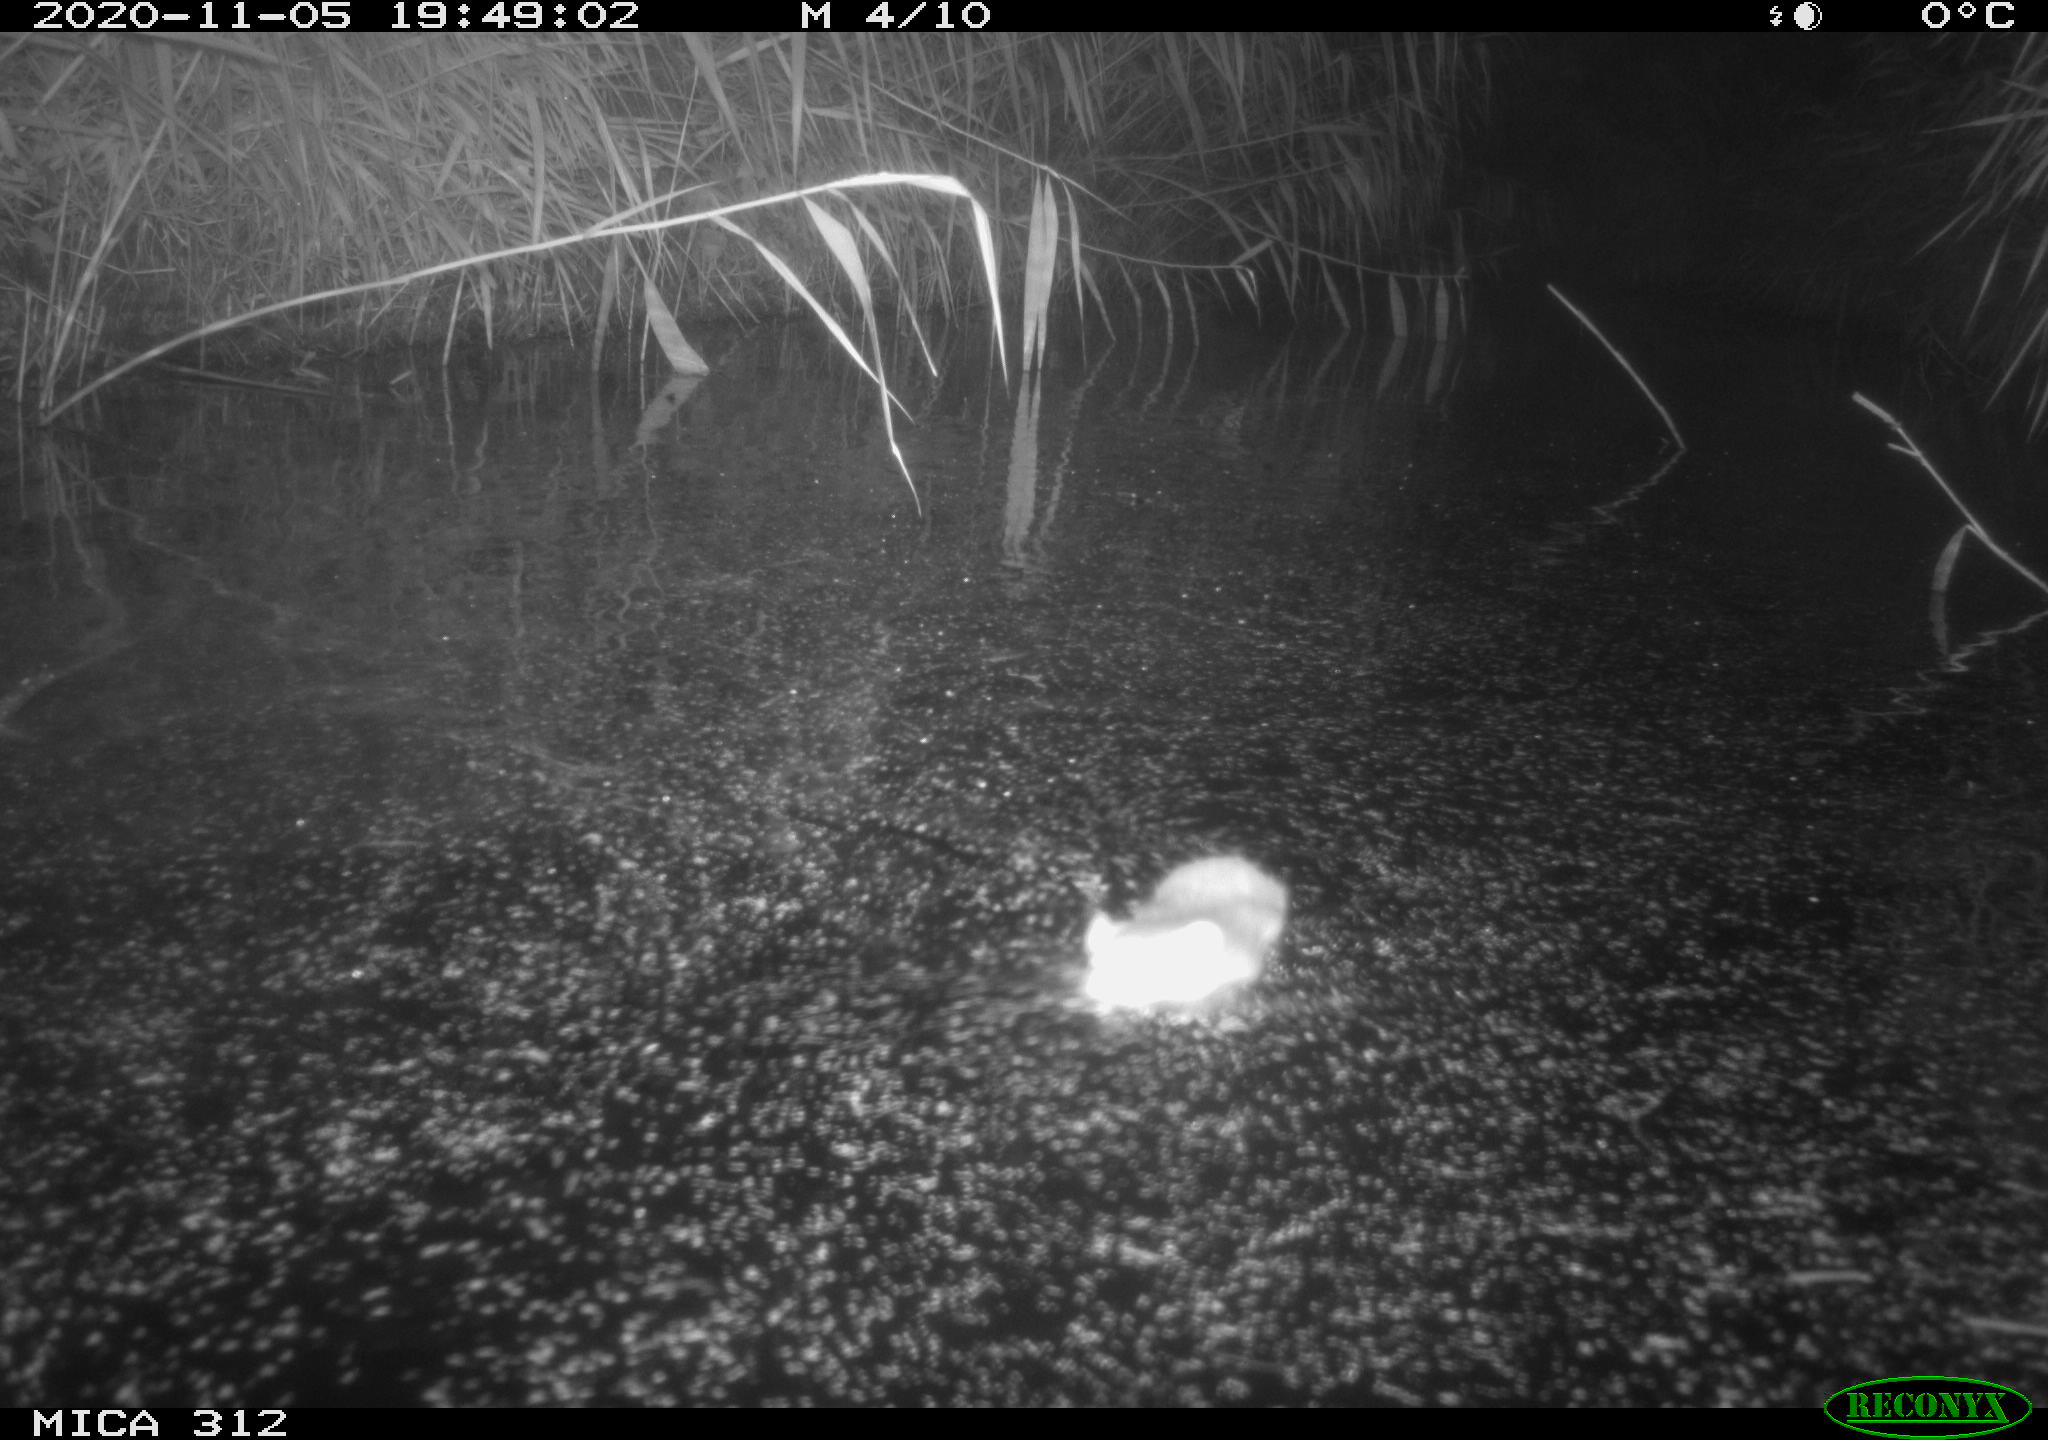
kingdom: Animalia
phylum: Chordata
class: Mammalia
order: Rodentia
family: Muridae
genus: Rattus
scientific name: Rattus norvegicus
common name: Brown rat
